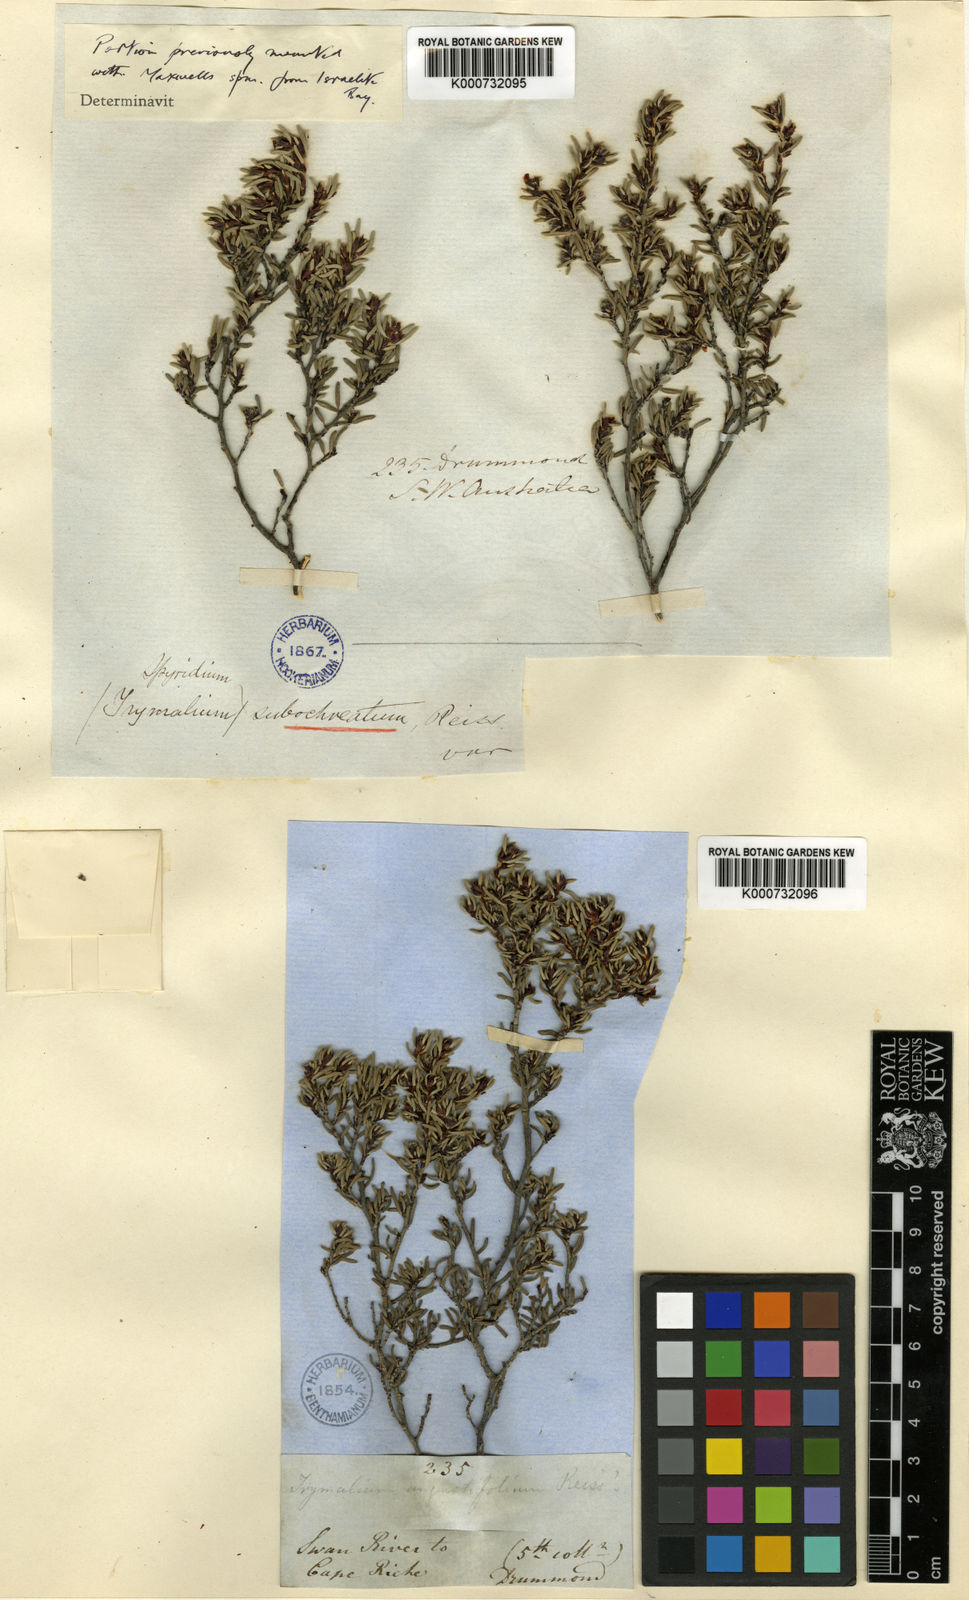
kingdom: Plantae
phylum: Tracheophyta
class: Magnoliopsida
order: Rosales
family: Rhamnaceae
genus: Spyridium
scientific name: Spyridium polycephalum
